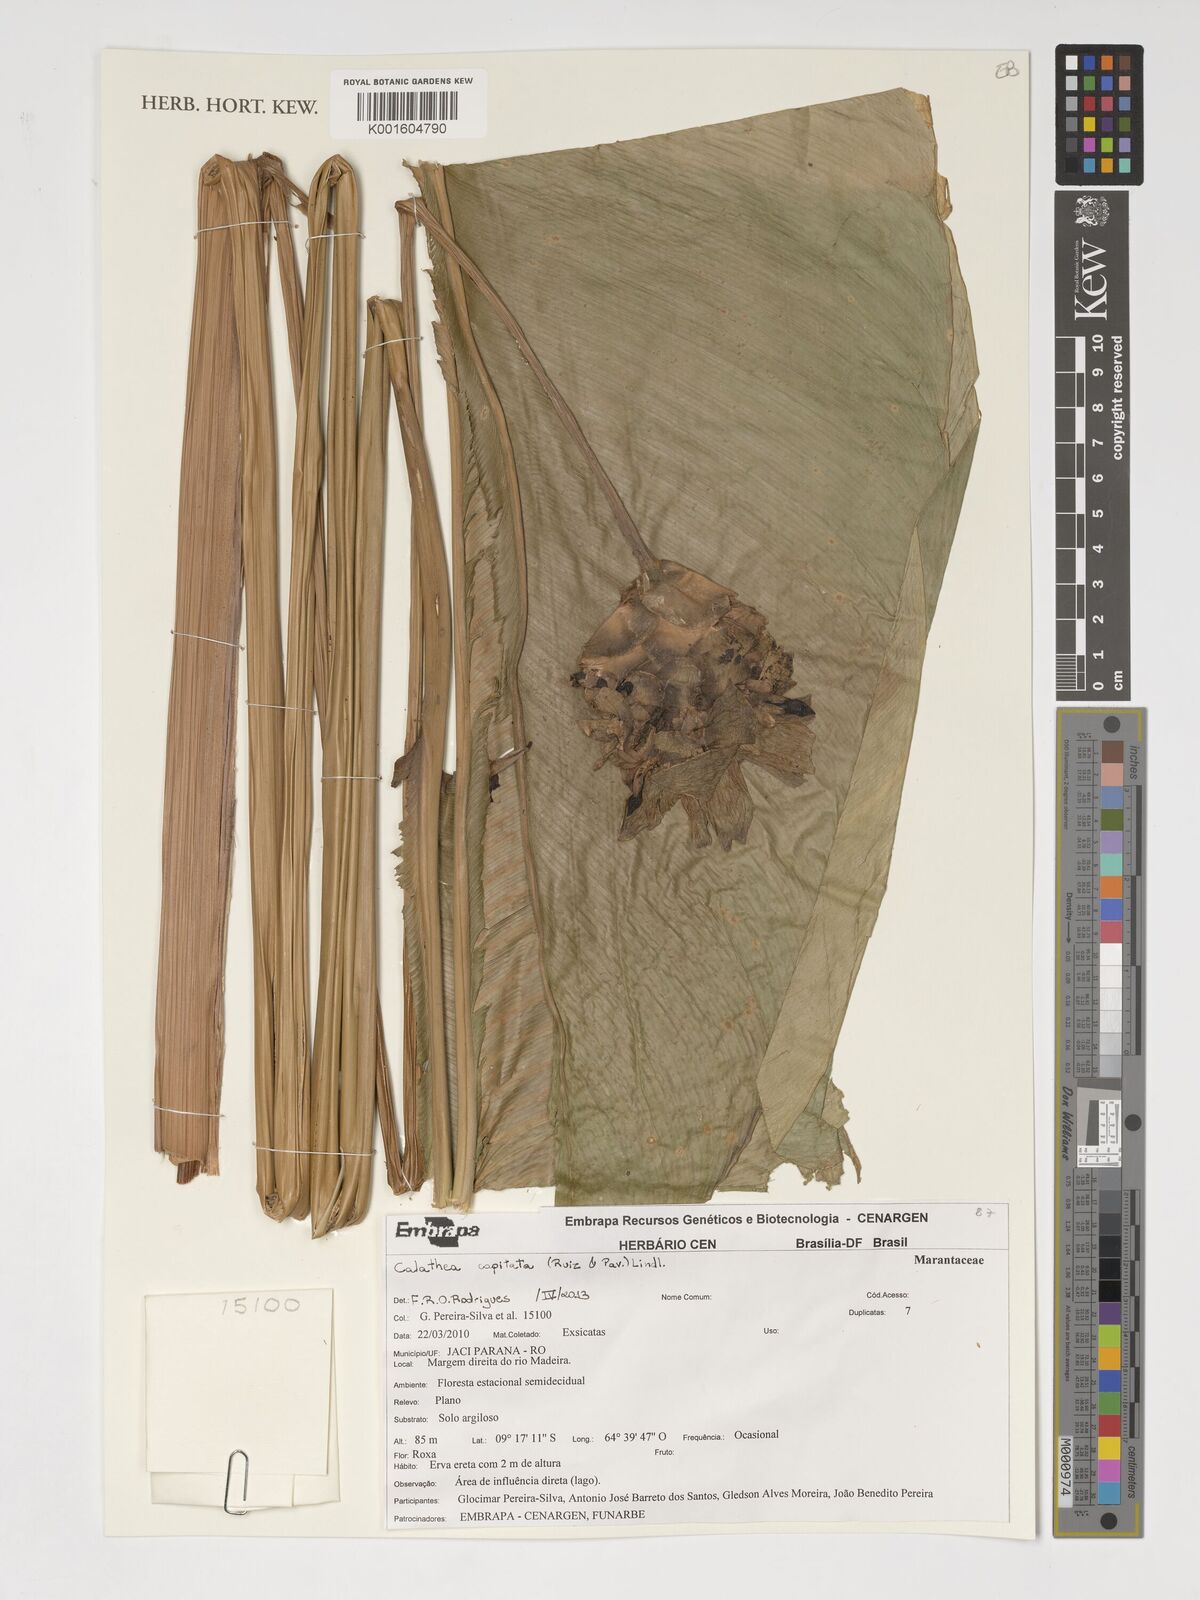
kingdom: Plantae
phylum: Tracheophyta
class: Liliopsida
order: Zingiberales
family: Marantaceae
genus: Goeppertia
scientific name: Goeppertia capitata
